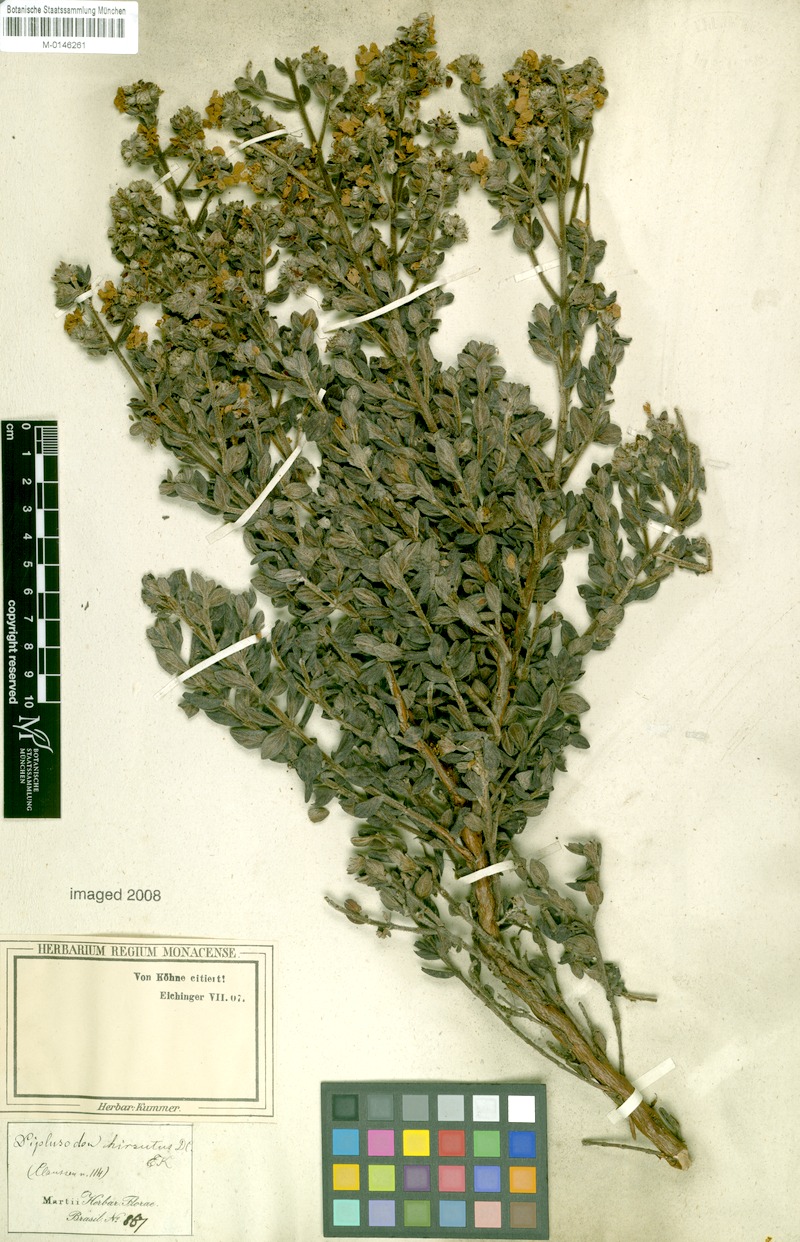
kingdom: Plantae
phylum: Tracheophyta
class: Magnoliopsida
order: Myrtales
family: Lythraceae
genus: Diplusodon
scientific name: Diplusodon hirsutus
